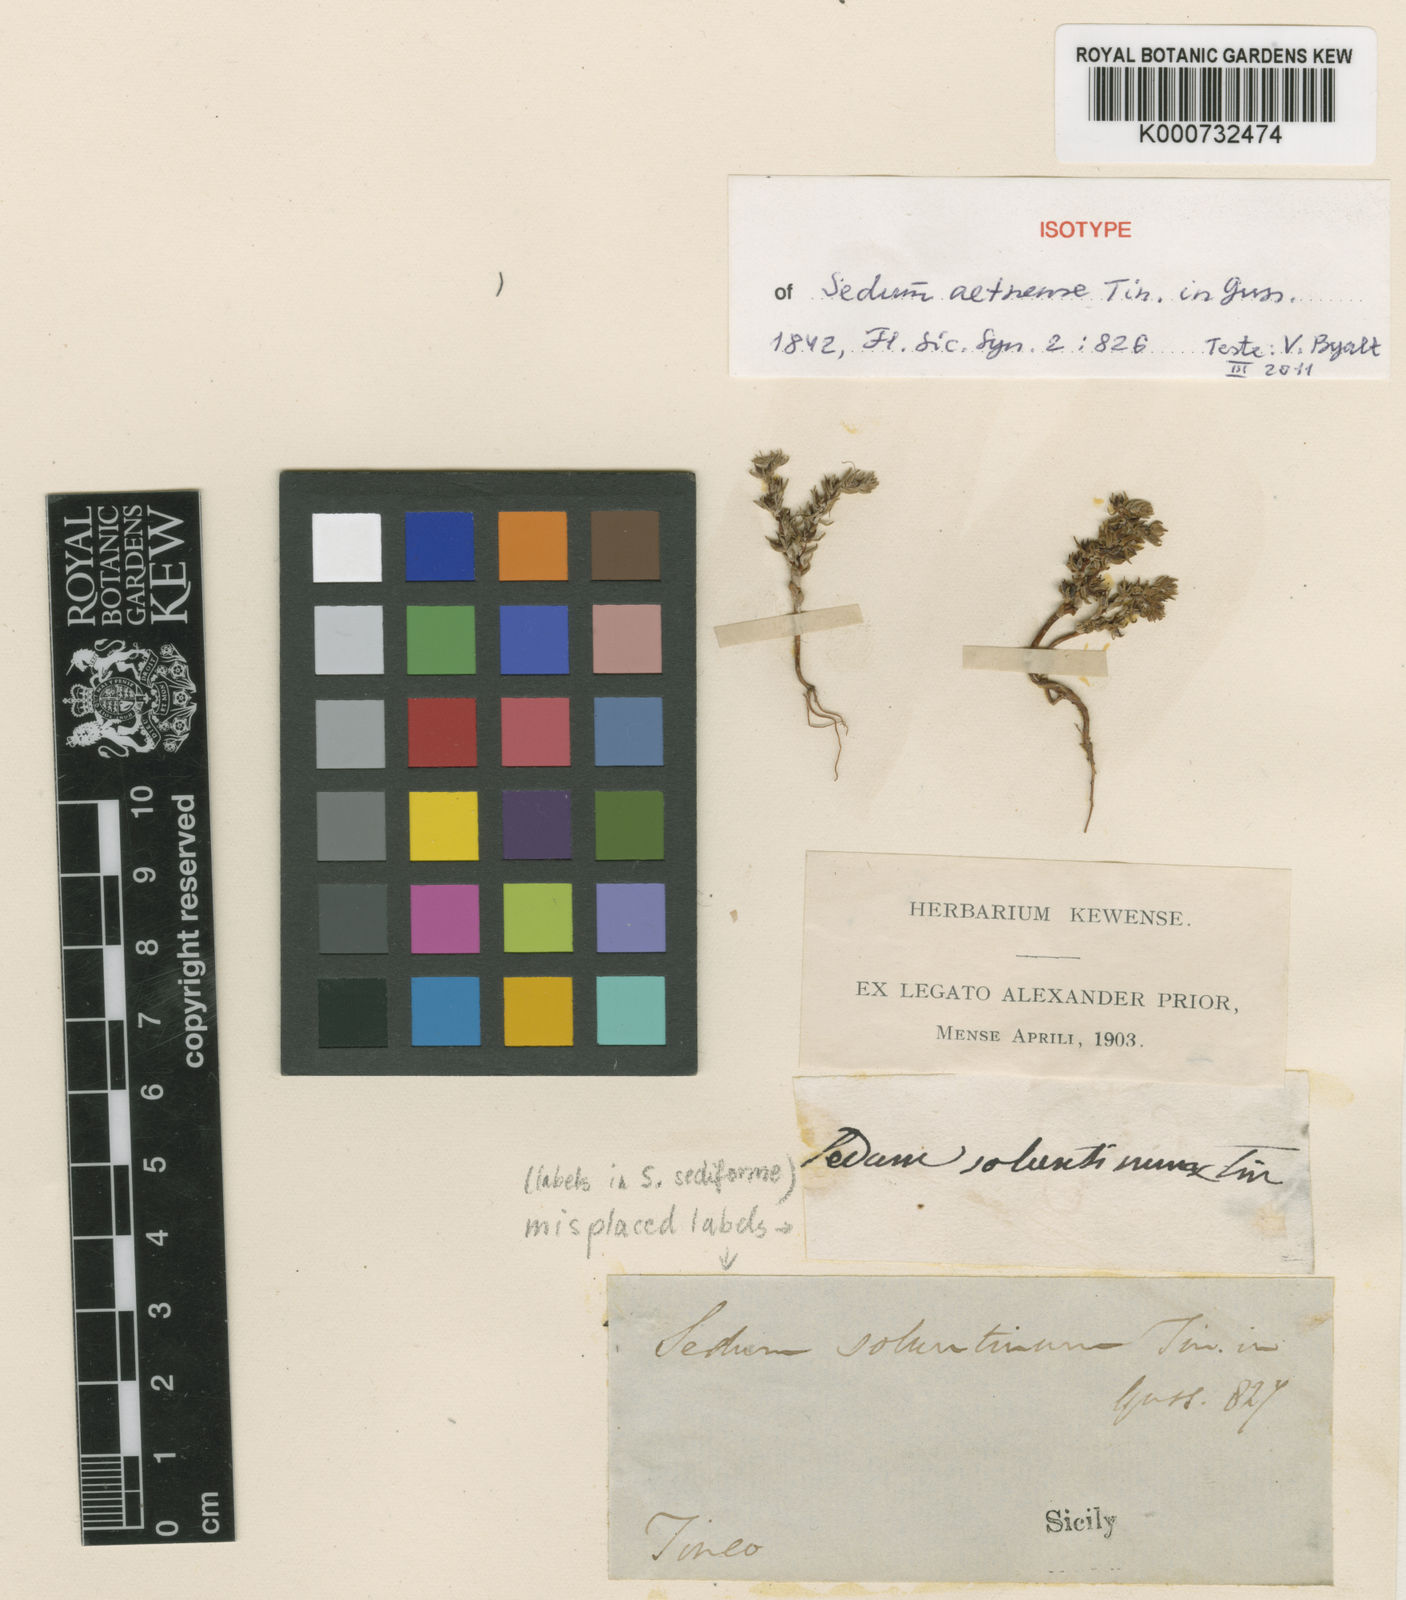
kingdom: Plantae
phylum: Tracheophyta
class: Magnoliopsida
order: Saxifragales
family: Crassulaceae
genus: Sedum
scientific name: Sedum aetnense
